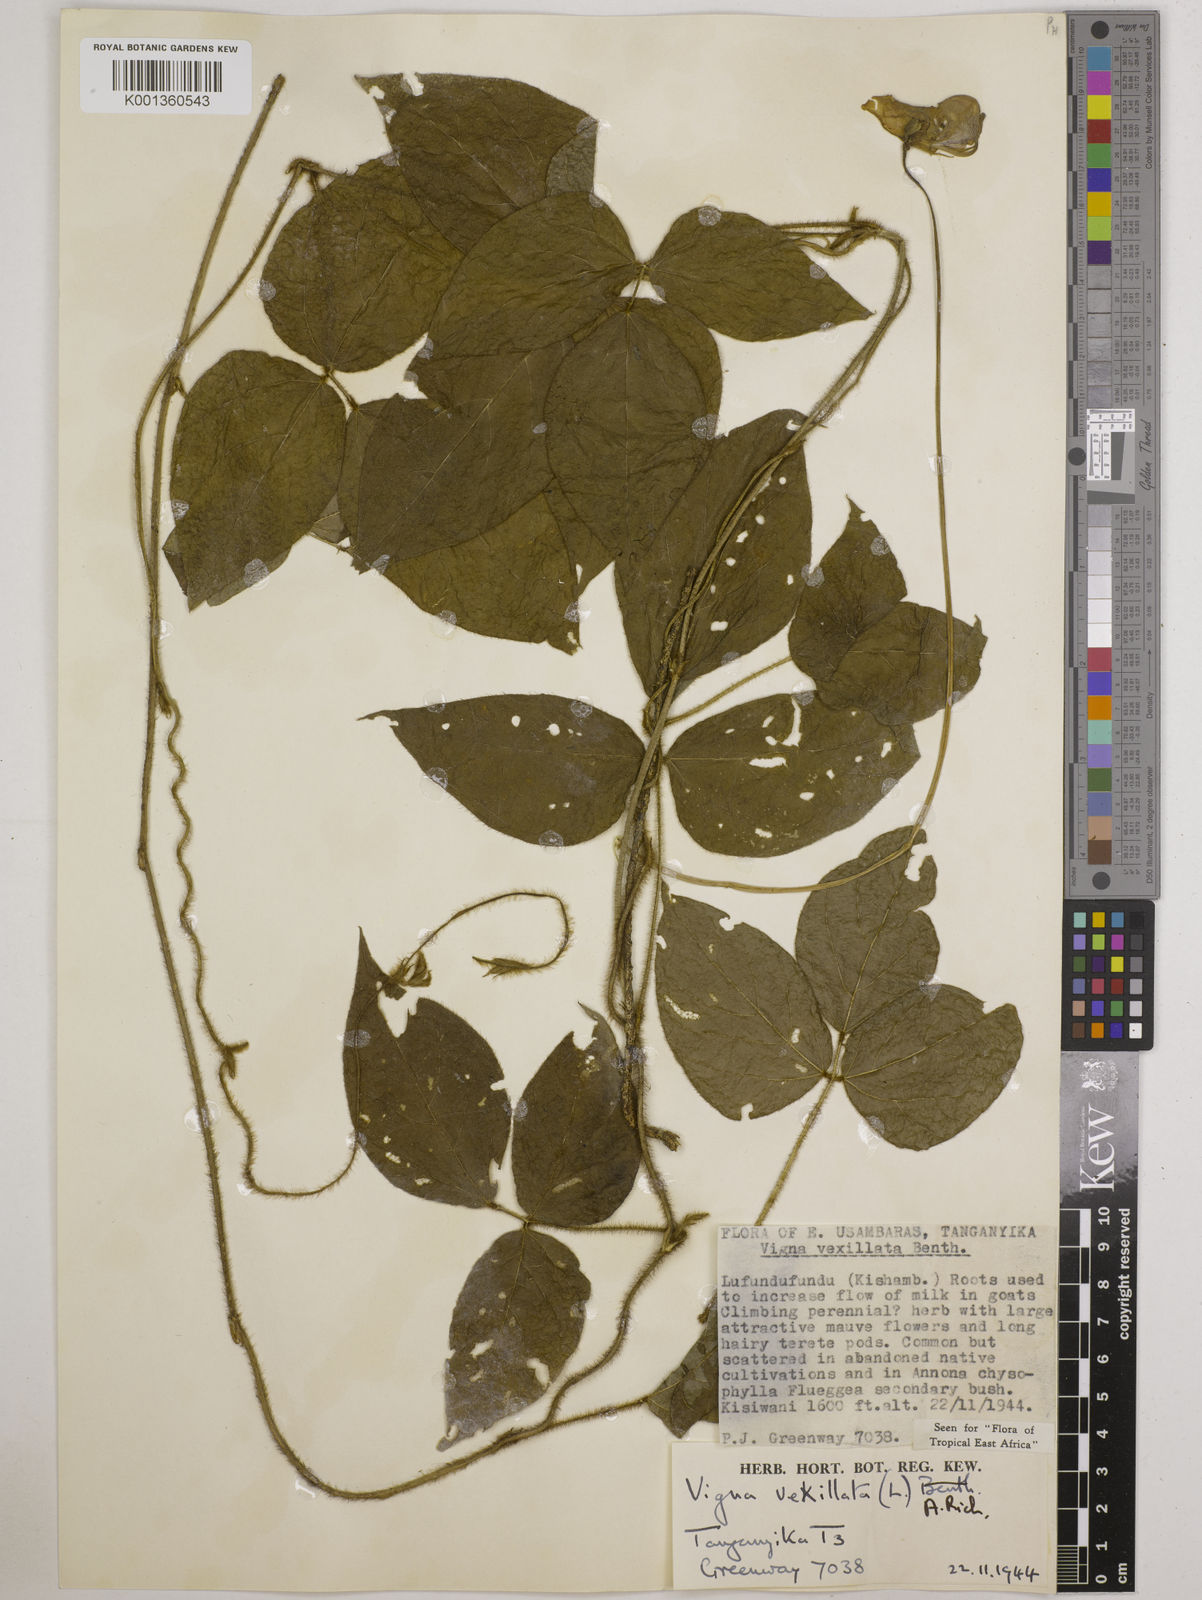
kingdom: Plantae
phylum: Tracheophyta
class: Magnoliopsida
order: Fabales
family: Fabaceae
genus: Vigna
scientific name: Vigna vexillata
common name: Zombi pea
